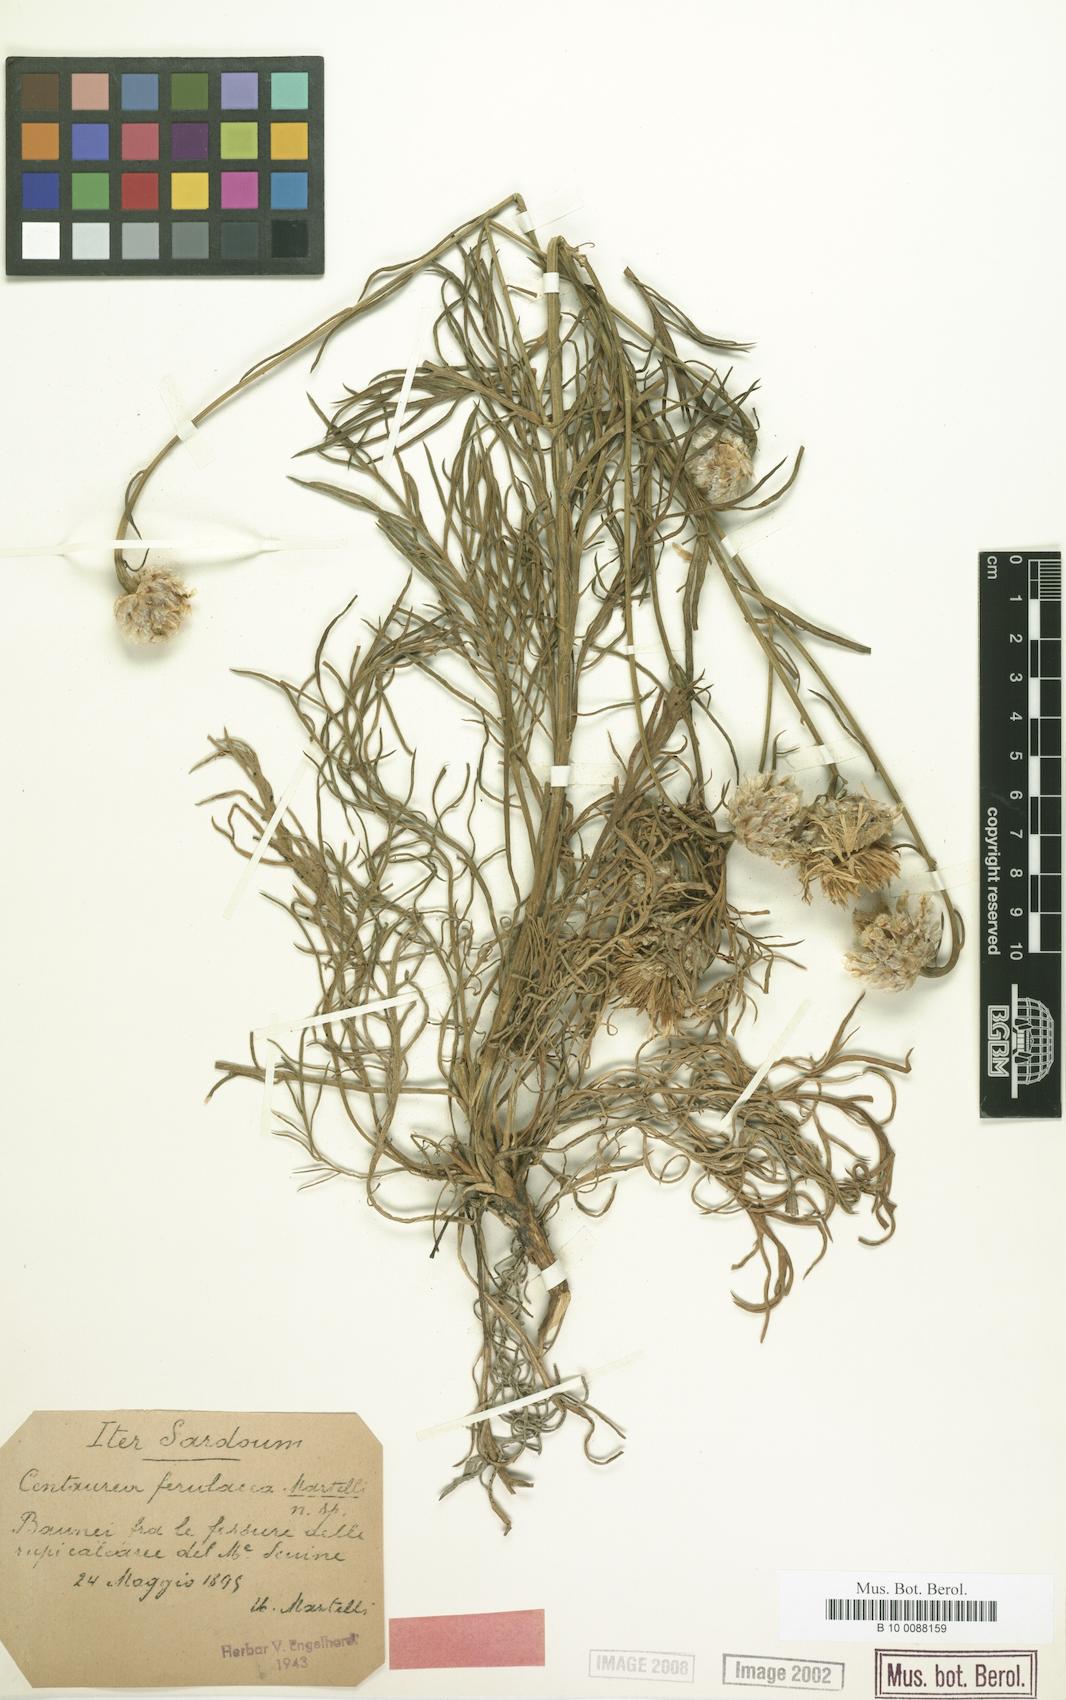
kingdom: Plantae
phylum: Tracheophyta
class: Magnoliopsida
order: Asterales
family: Asteraceae
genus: Centaurea
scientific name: Centaurea filiformis
